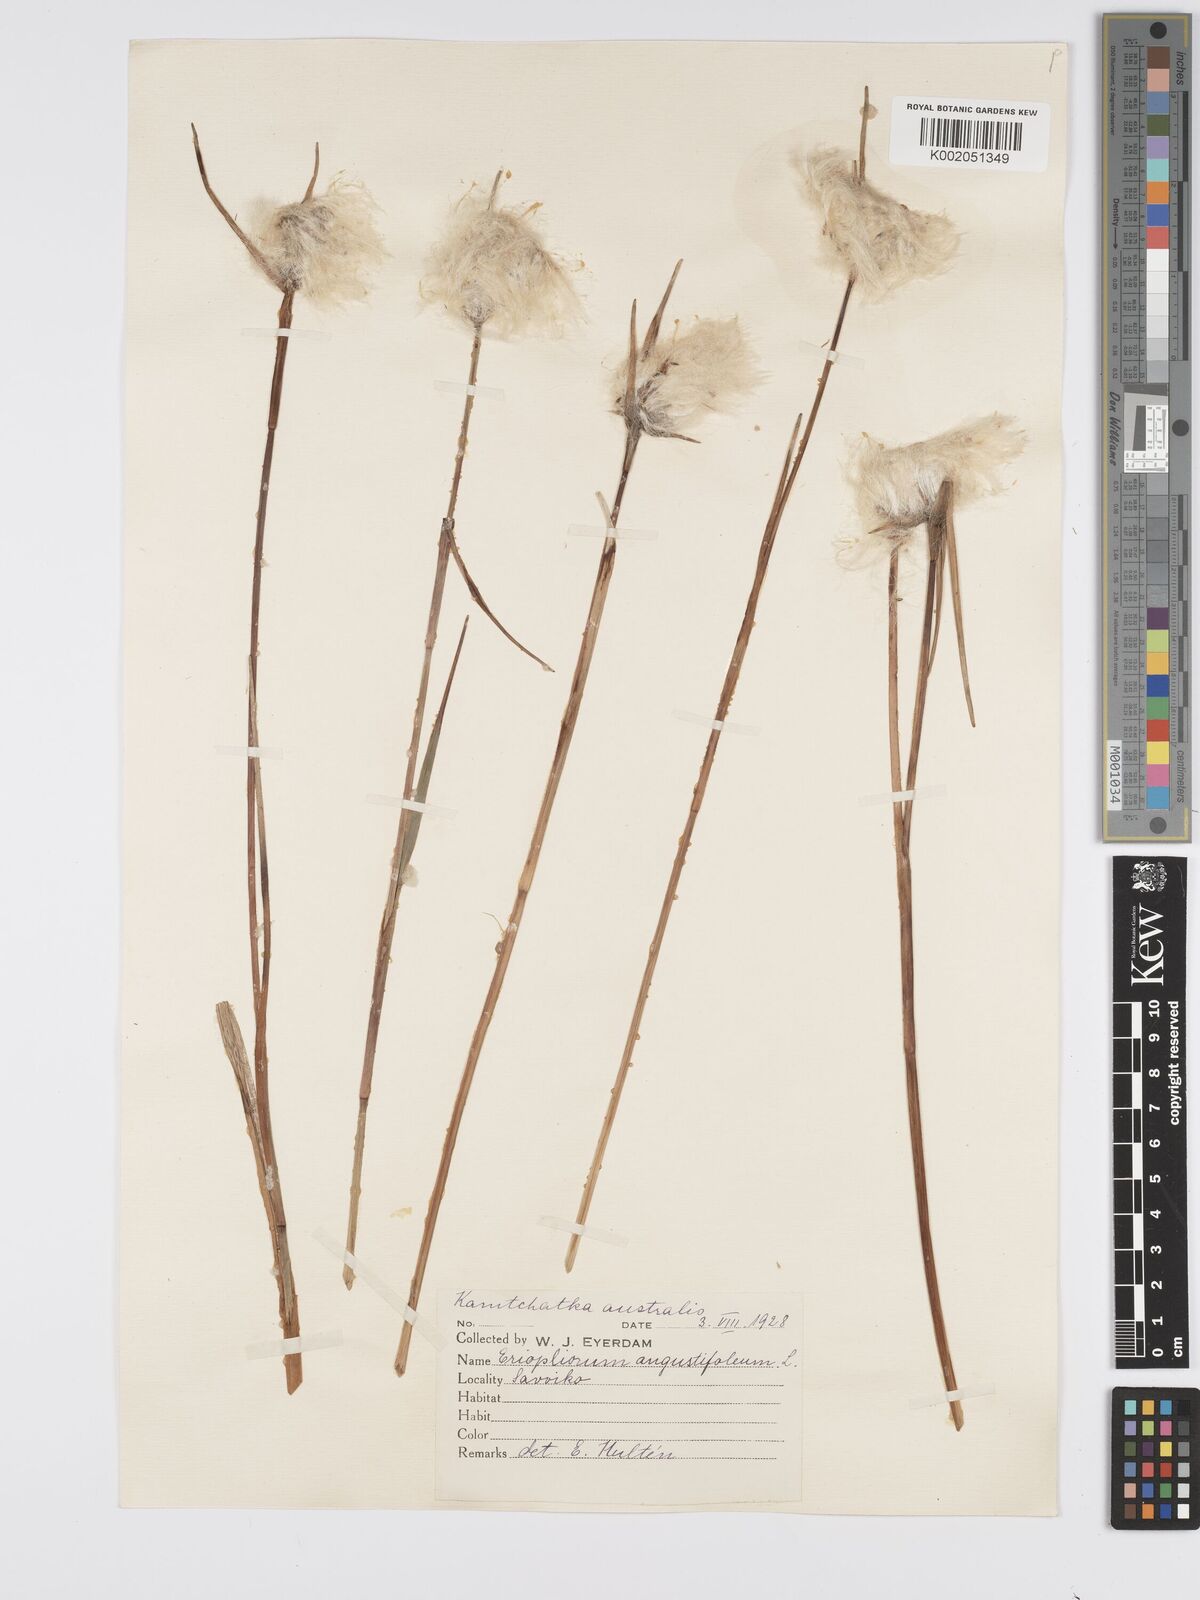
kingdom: Plantae
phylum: Tracheophyta
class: Liliopsida
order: Poales
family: Cyperaceae
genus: Eriophorum
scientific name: Eriophorum angustifolium
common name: Common cottongrass
